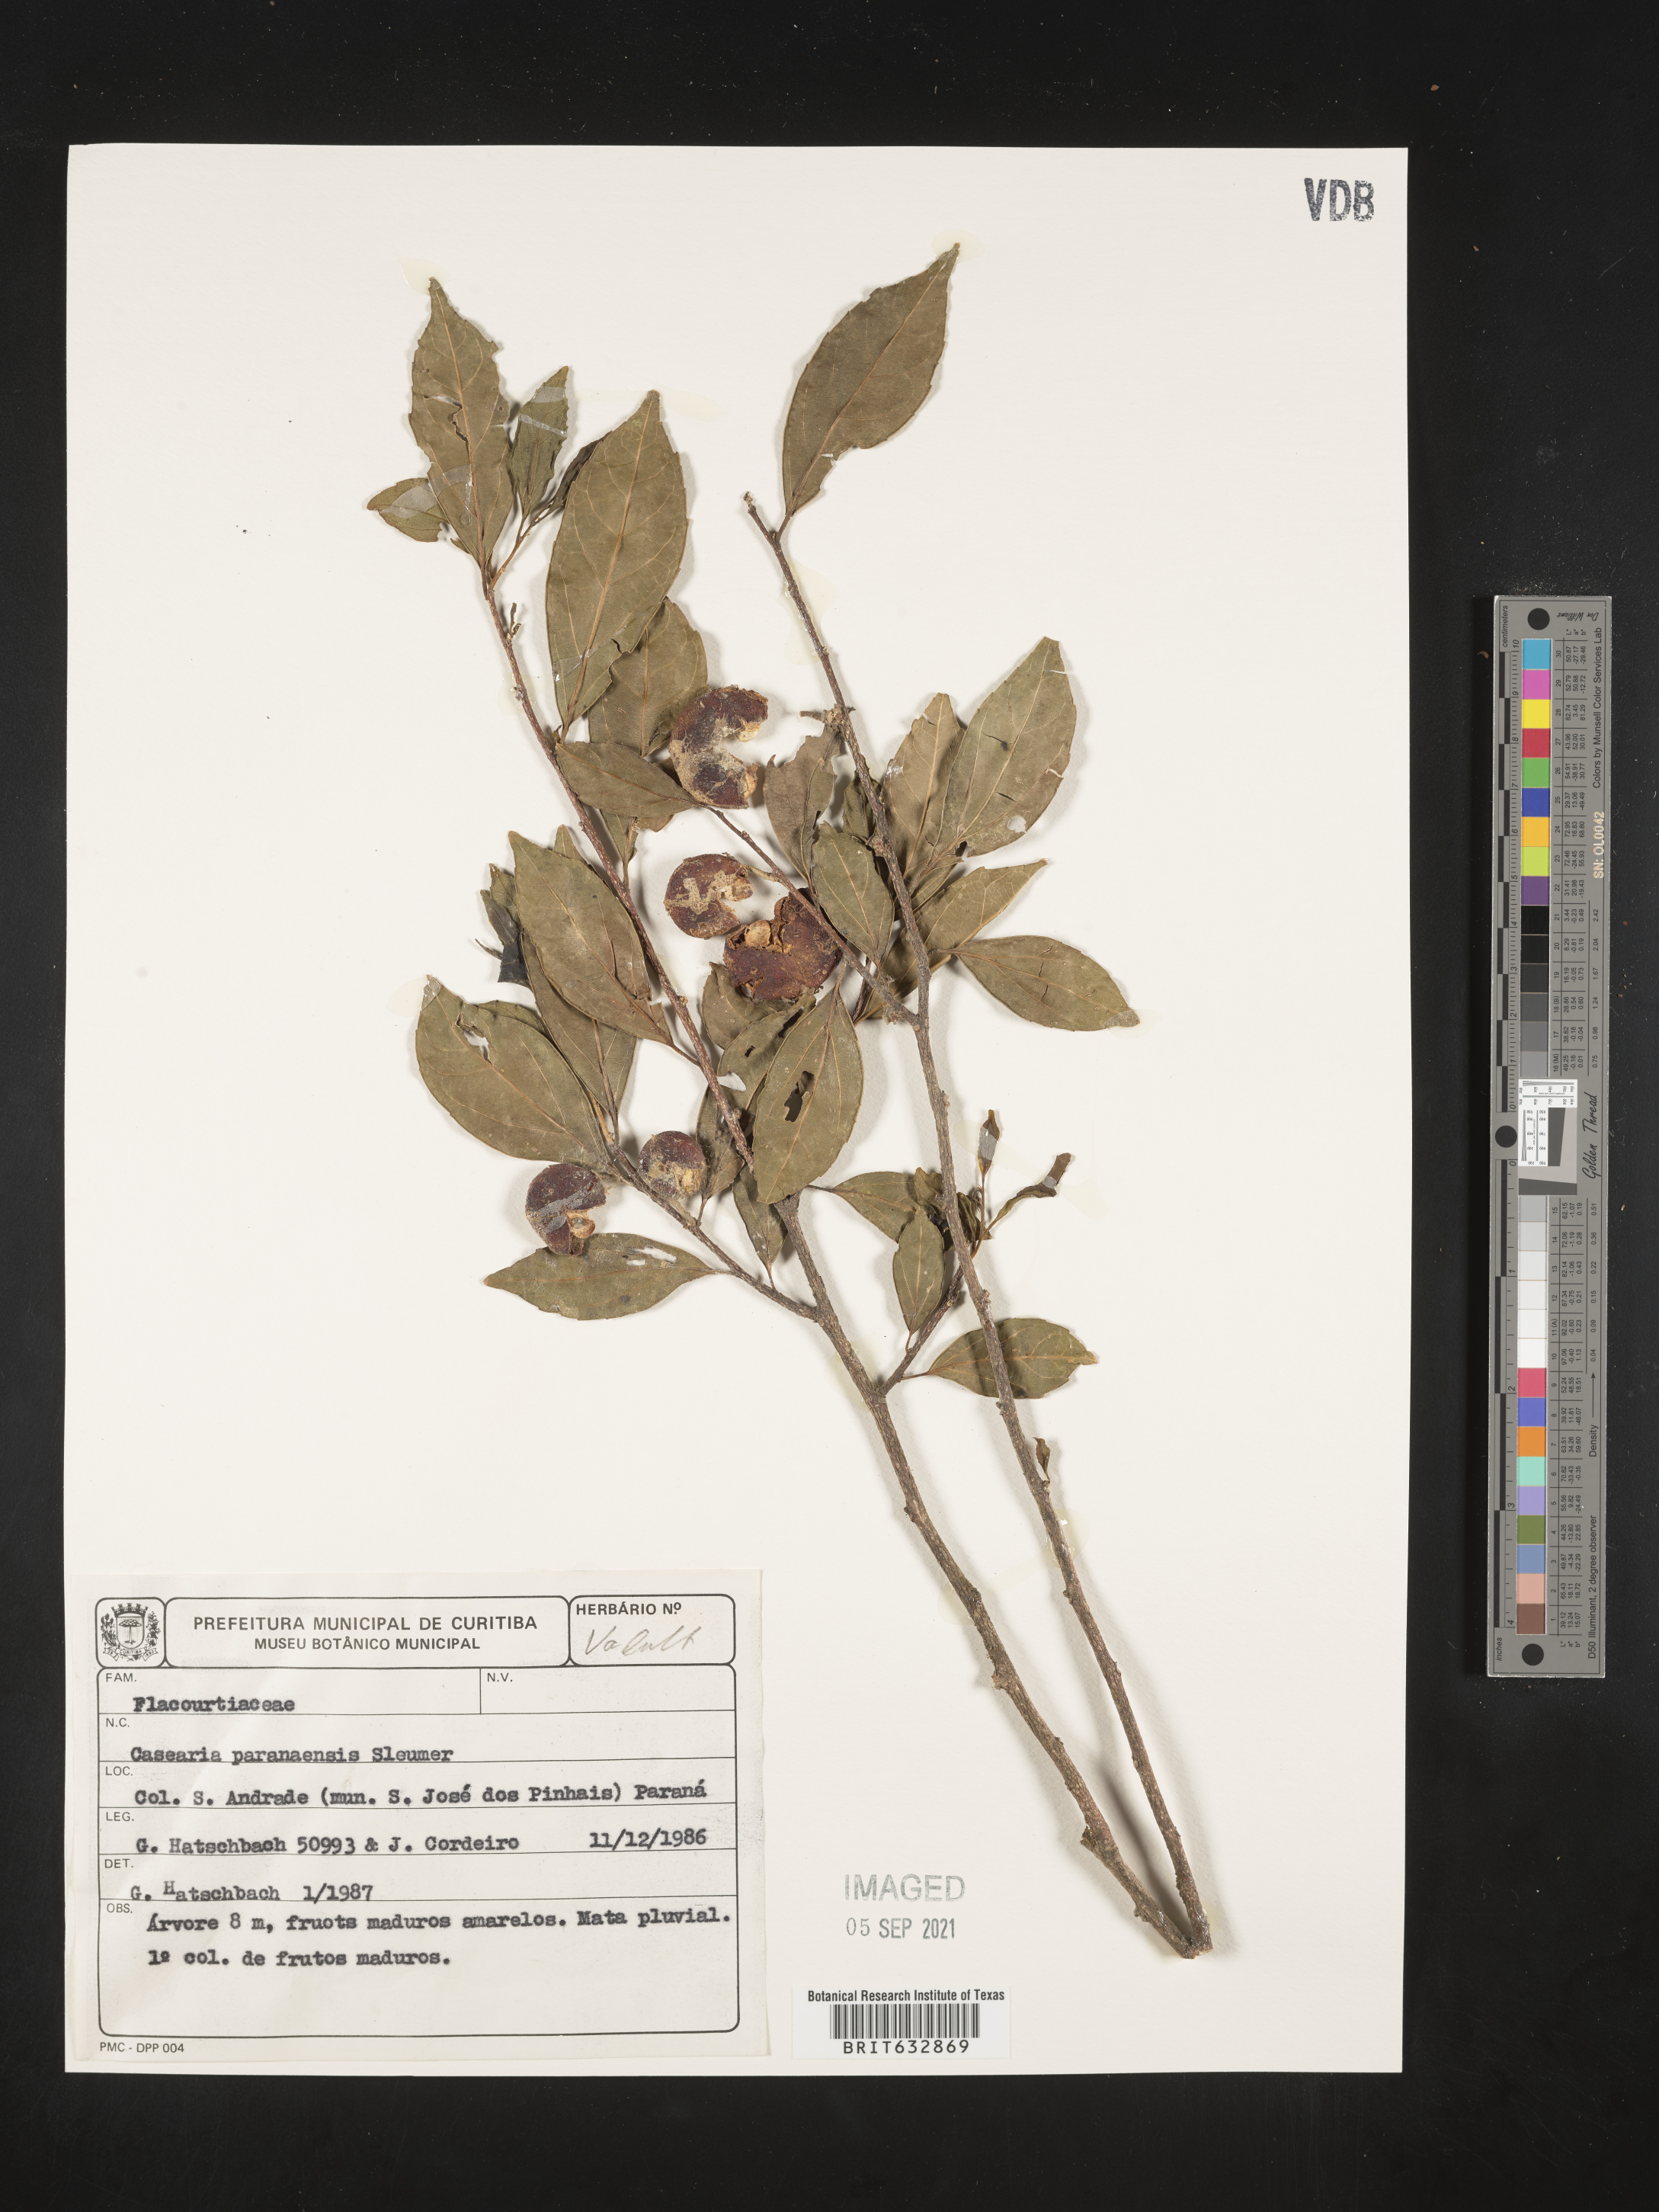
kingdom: Plantae
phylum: Tracheophyta
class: Magnoliopsida
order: Malpighiales
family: Salicaceae
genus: Casearia
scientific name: Casearia
